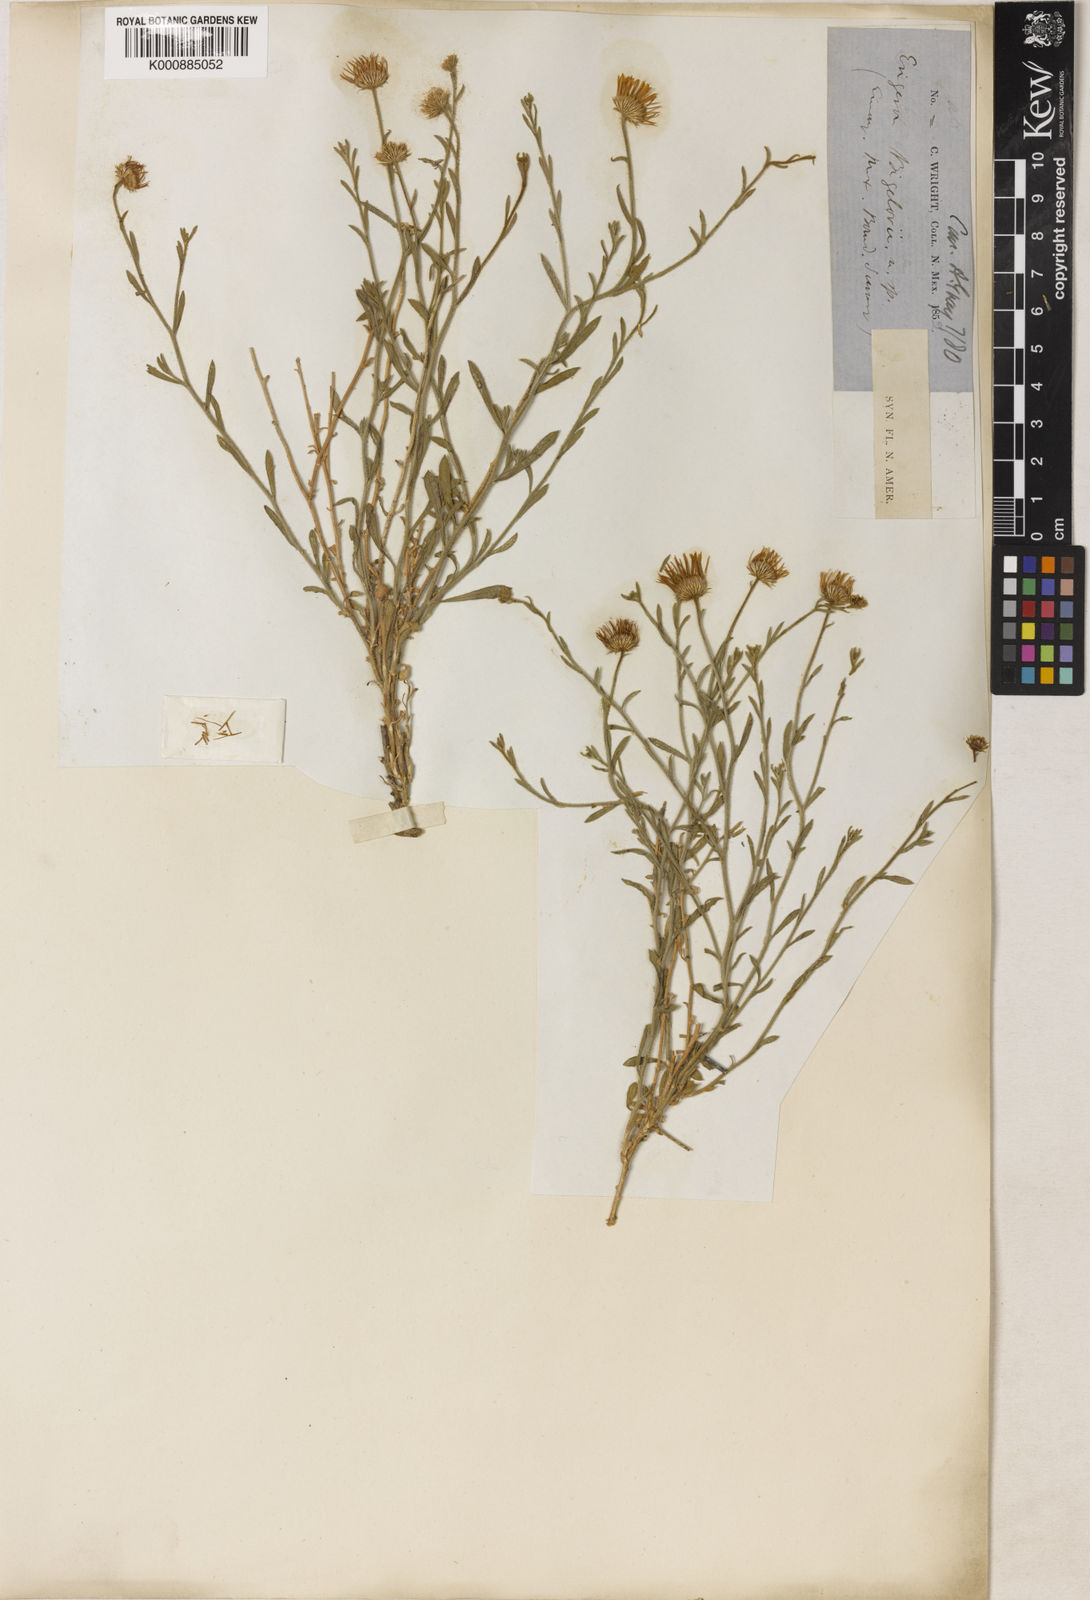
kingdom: Plantae
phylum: Tracheophyta
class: Magnoliopsida
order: Asterales
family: Asteraceae
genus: Erigeron
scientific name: Erigeron
